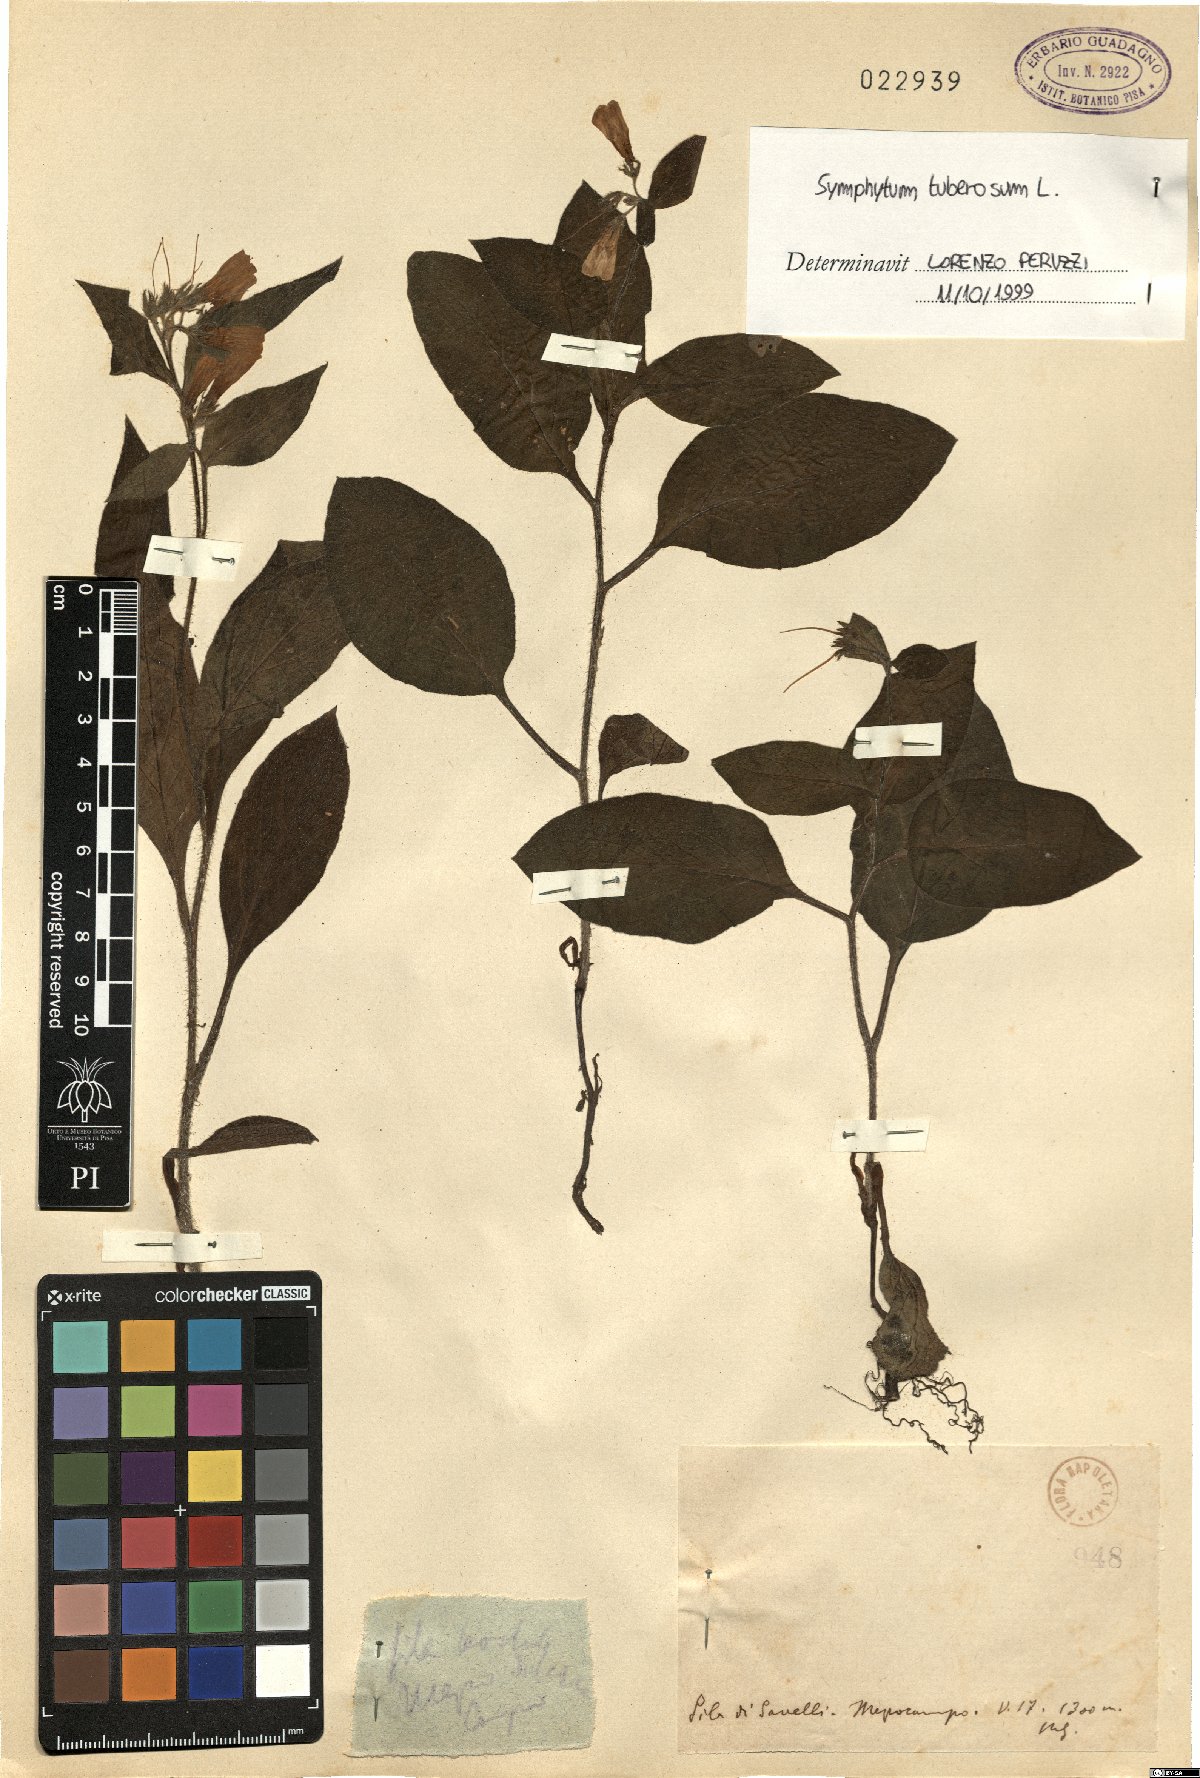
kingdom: Plantae
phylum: Tracheophyta
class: Magnoliopsida
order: Boraginales
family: Boraginaceae
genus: Symphytum
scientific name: Symphytum tuberosum
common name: Tuberous comfrey
